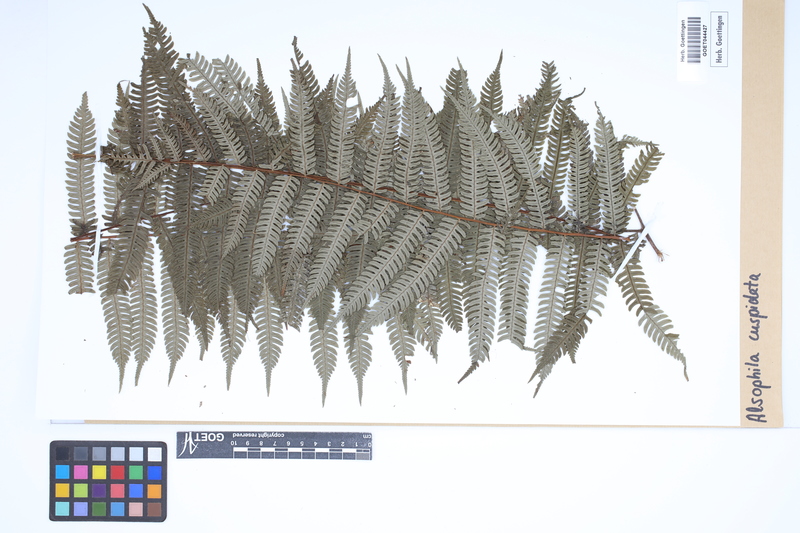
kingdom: Plantae
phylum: Tracheophyta
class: Polypodiopsida
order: Cyatheales
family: Cyatheaceae
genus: Alsophila
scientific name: Alsophila cuspidata
